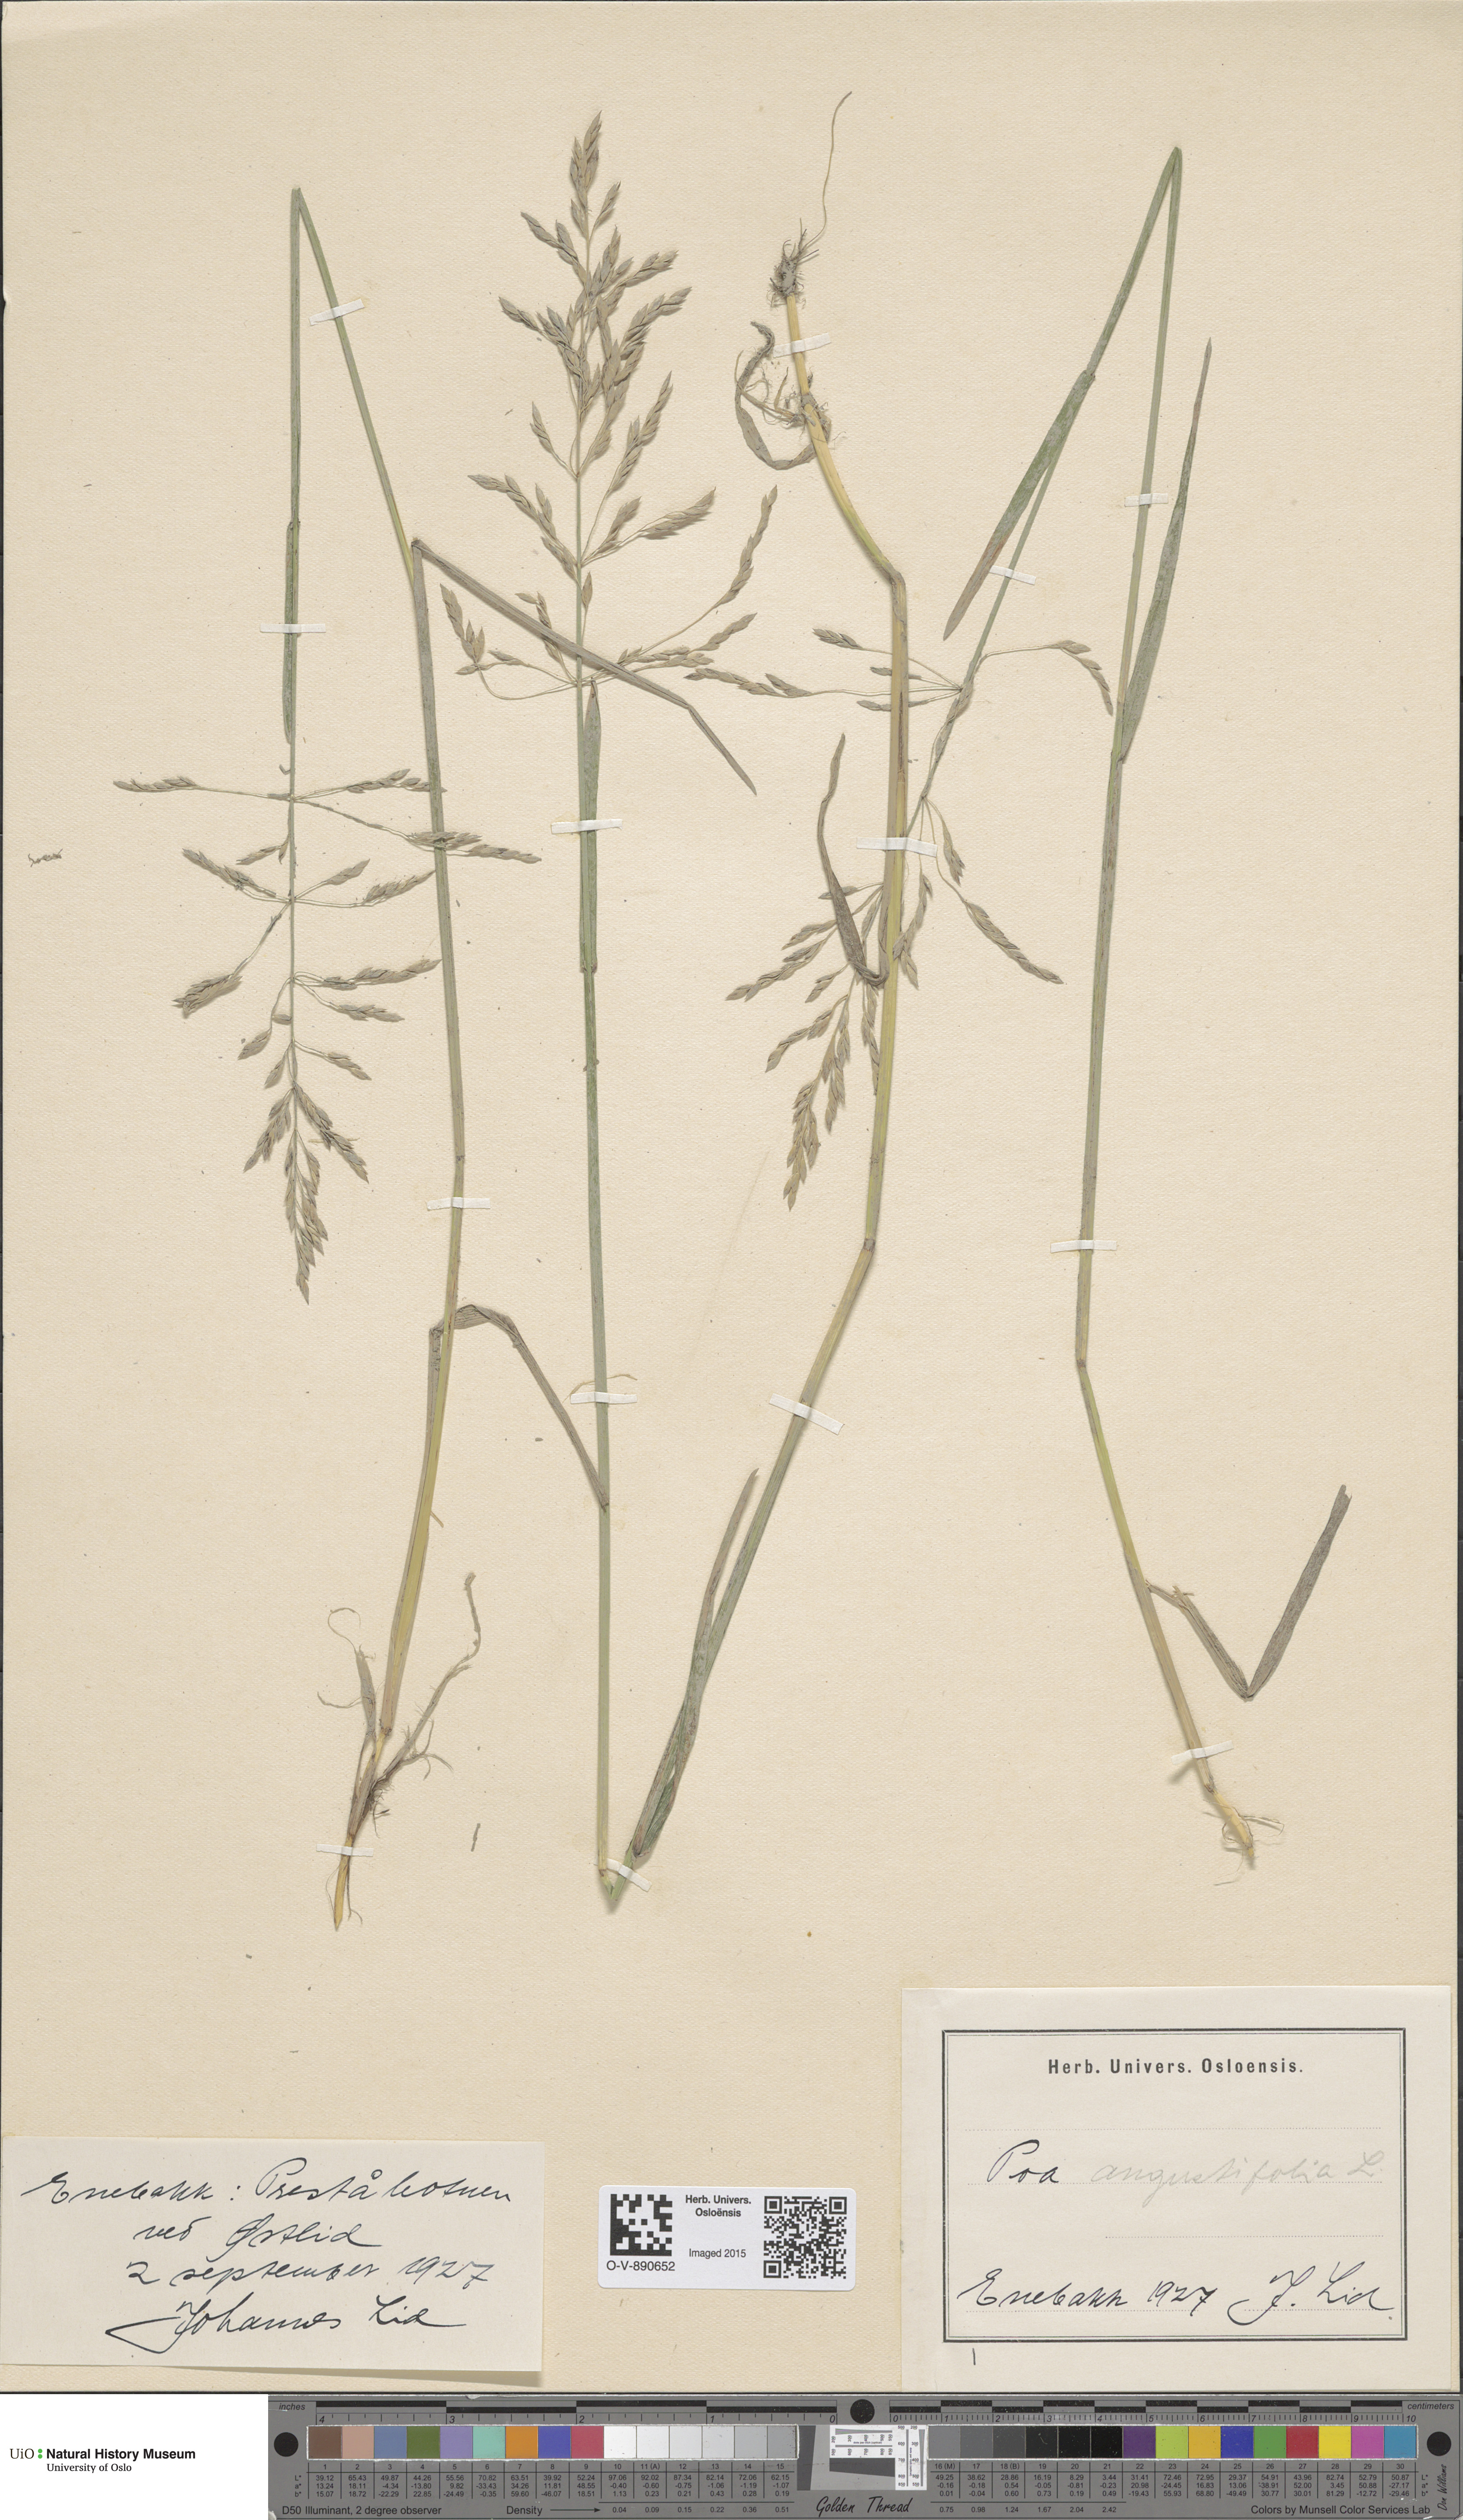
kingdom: Plantae
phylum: Tracheophyta
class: Liliopsida
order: Poales
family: Poaceae
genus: Poa
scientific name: Poa angustifolia
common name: Narrow-leaved meadow-grass
